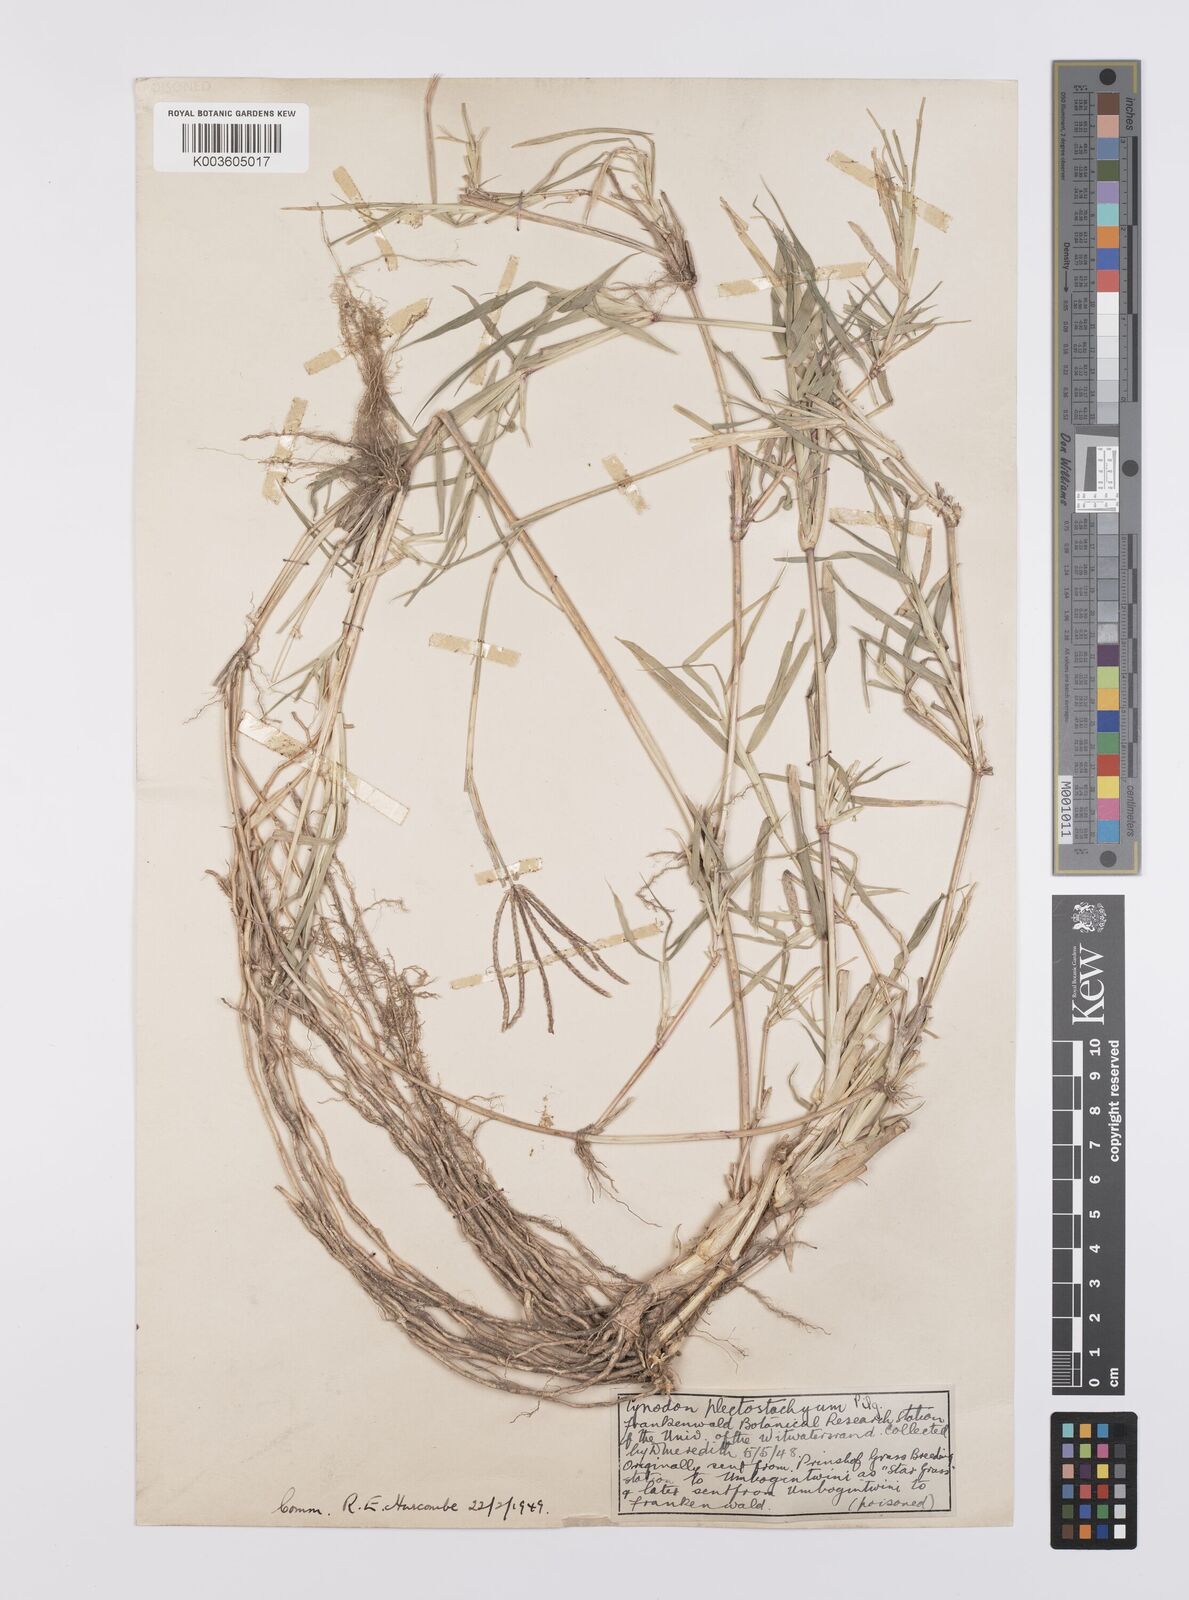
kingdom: Plantae
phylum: Tracheophyta
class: Liliopsida
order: Poales
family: Poaceae
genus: Cynodon
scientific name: Cynodon nlemfuensis
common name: African bermudagrass
